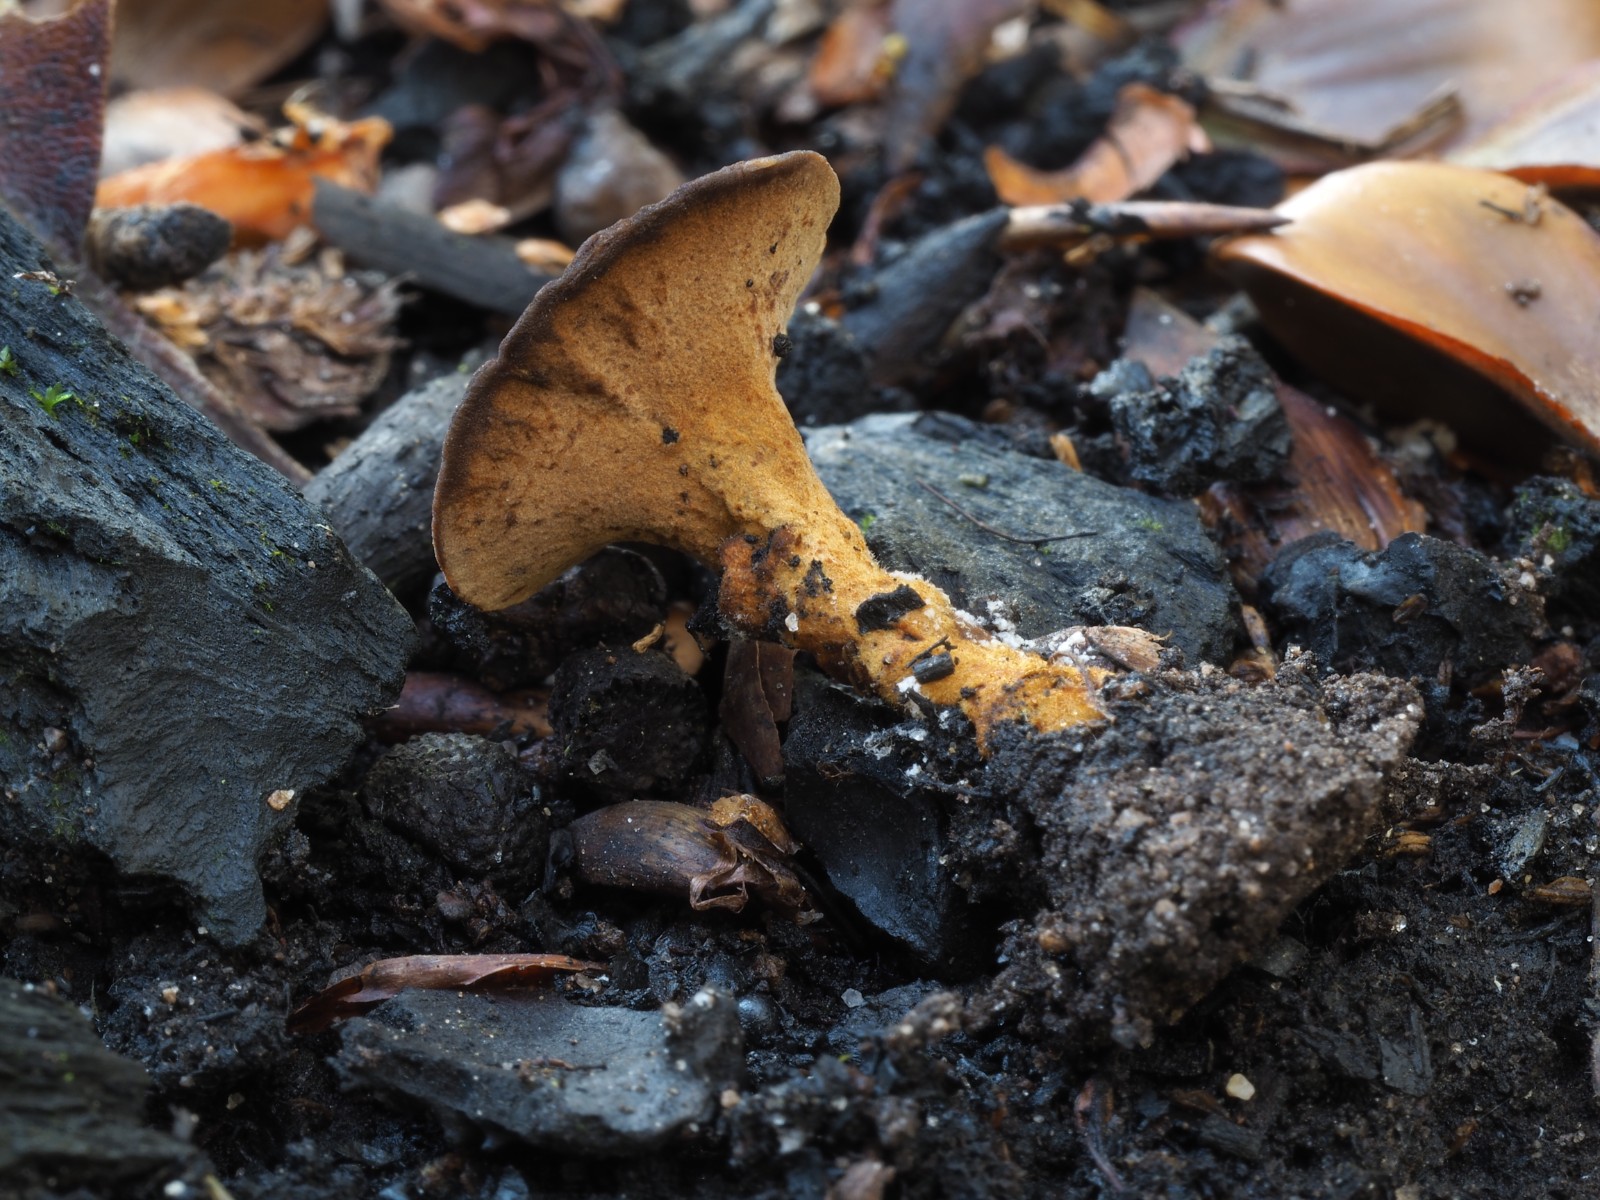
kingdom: Fungi
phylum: Basidiomycota
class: Agaricomycetes
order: Hymenochaetales
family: Hymenochaetaceae
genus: Coltricia
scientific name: Coltricia
